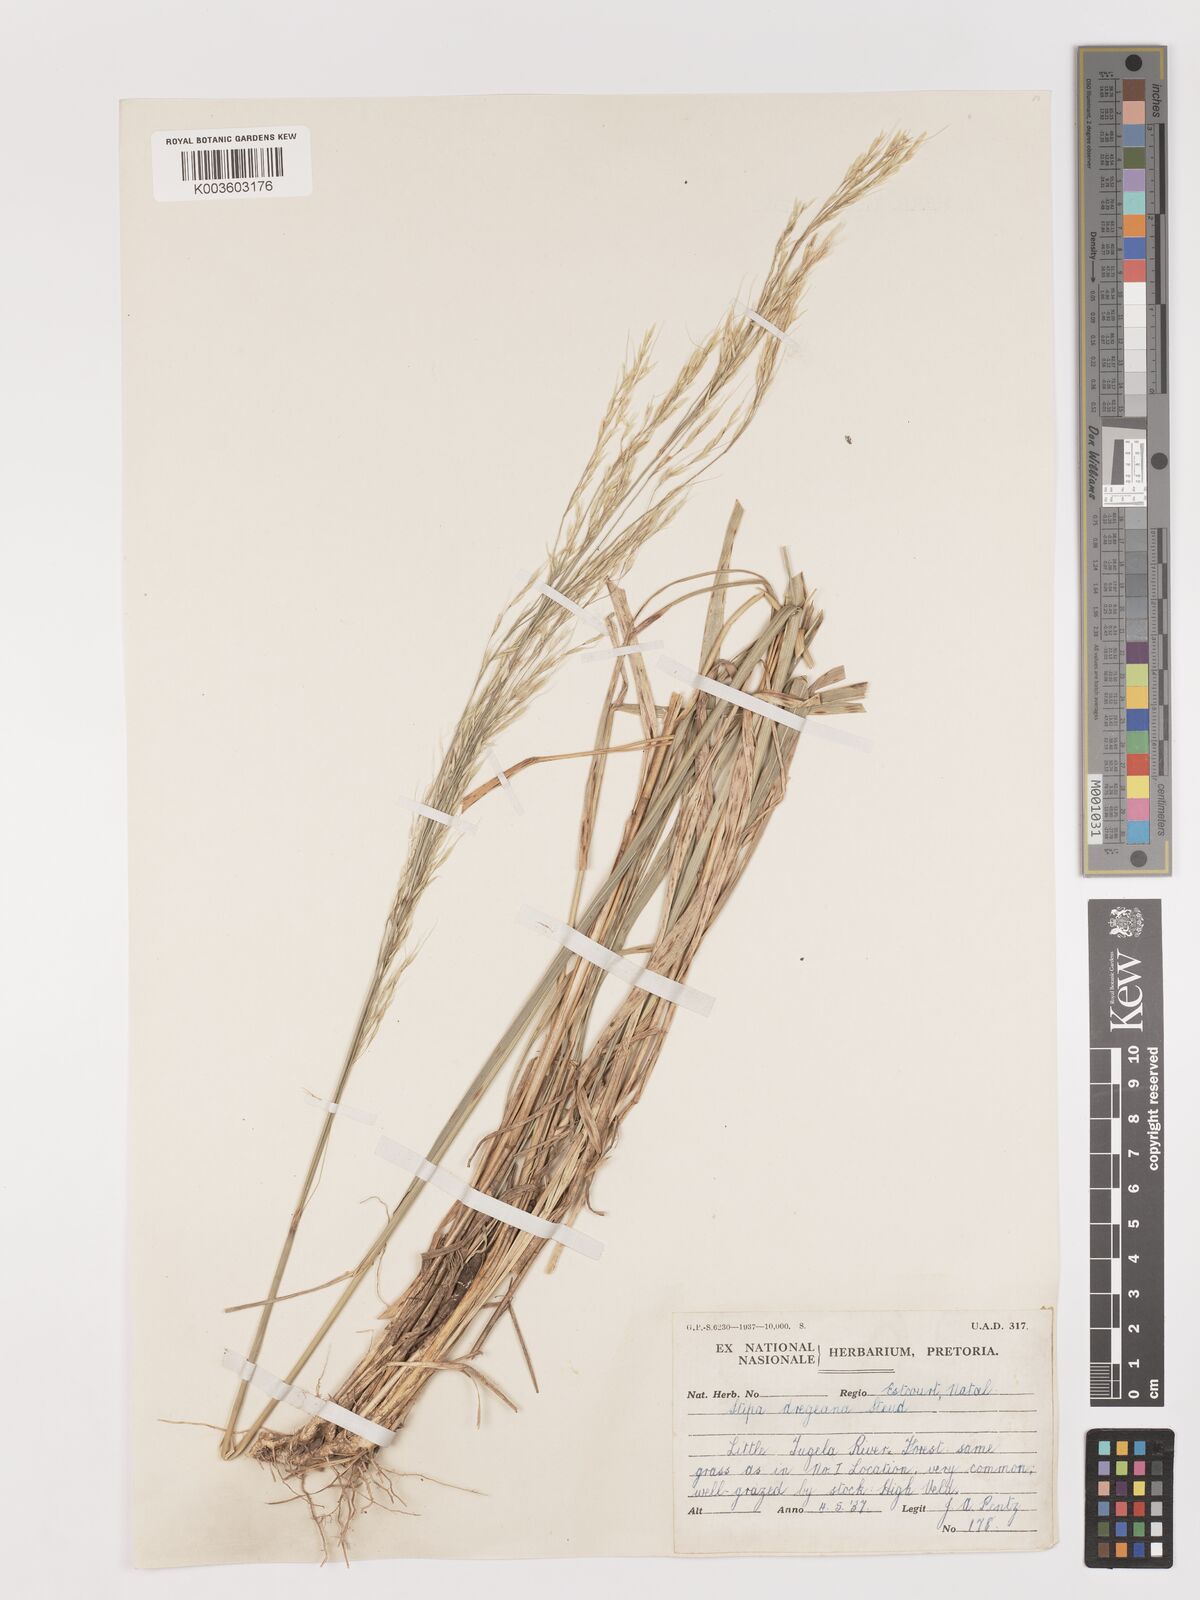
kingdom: Plantae
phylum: Tracheophyta
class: Liliopsida
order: Poales
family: Poaceae
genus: Stipa
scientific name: Stipa dregeana
